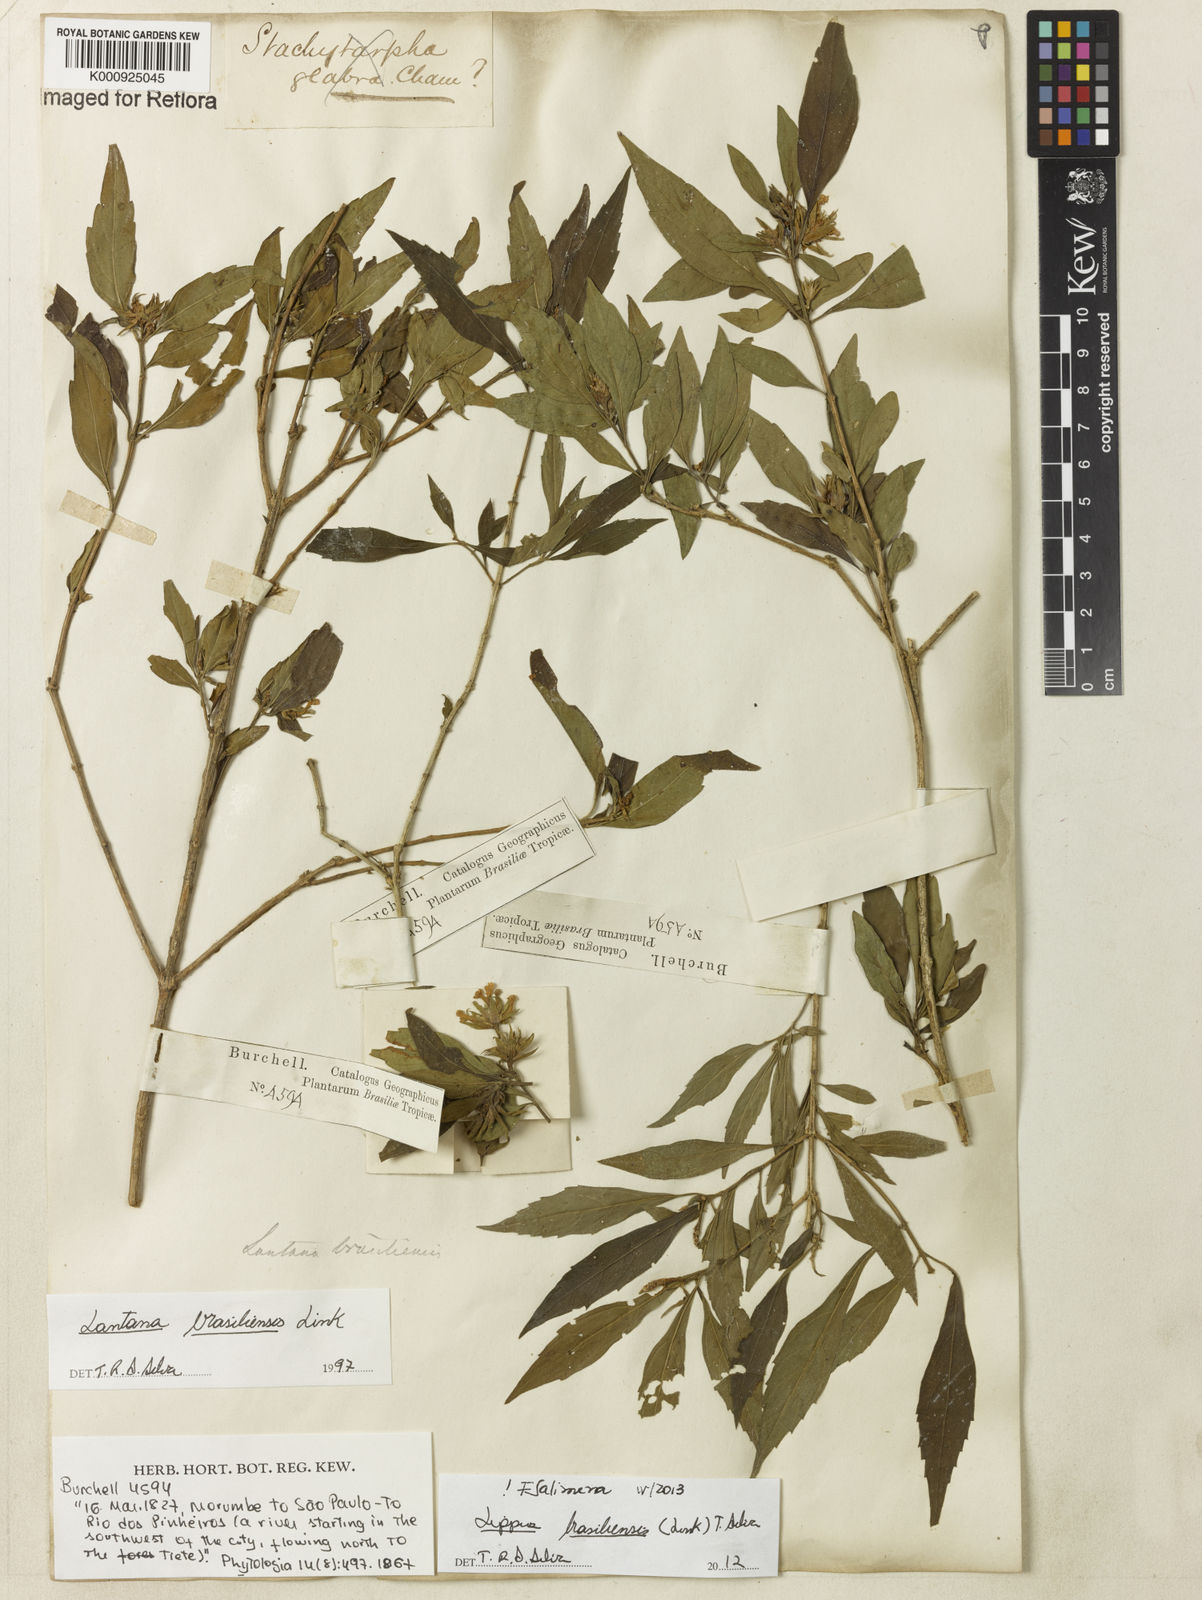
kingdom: Plantae
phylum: Tracheophyta
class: Magnoliopsida
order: Lamiales
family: Verbenaceae
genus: Lippia
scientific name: Lippia brasiliensis
